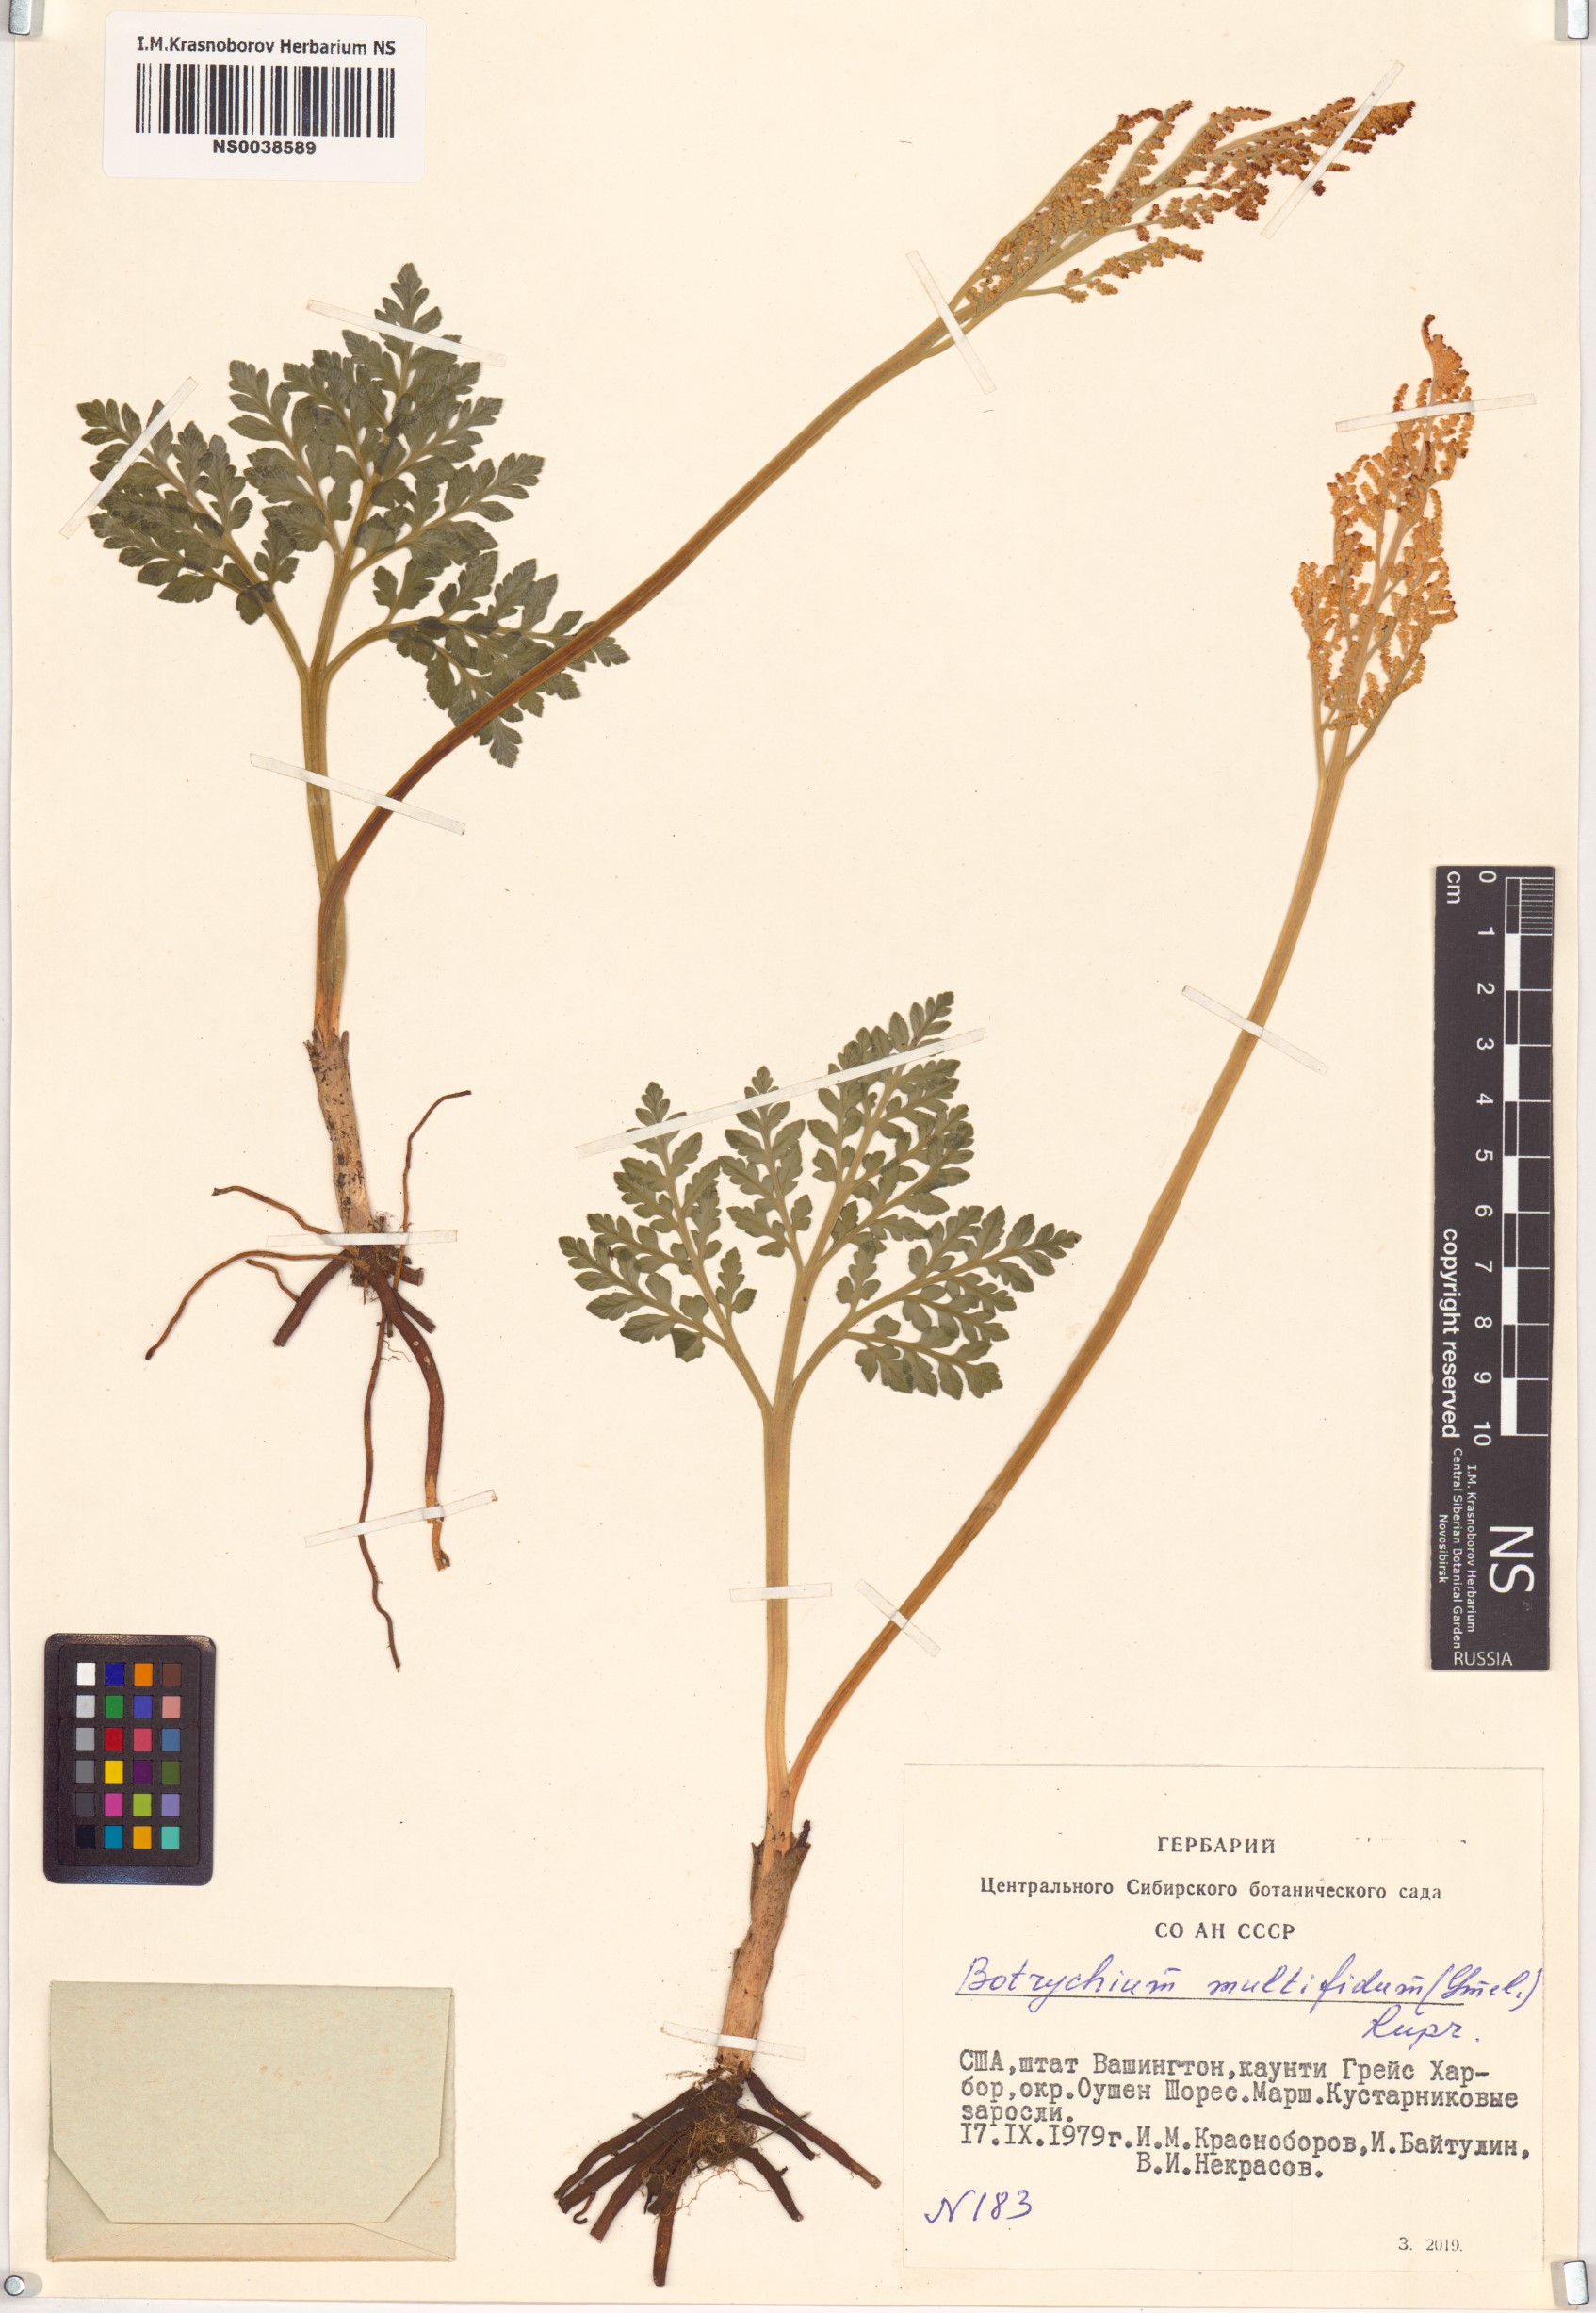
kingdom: Plantae
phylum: Tracheophyta
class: Polypodiopsida
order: Ophioglossales
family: Ophioglossaceae
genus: Sceptridium
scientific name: Sceptridium multifidum
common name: Leathery grape fern
